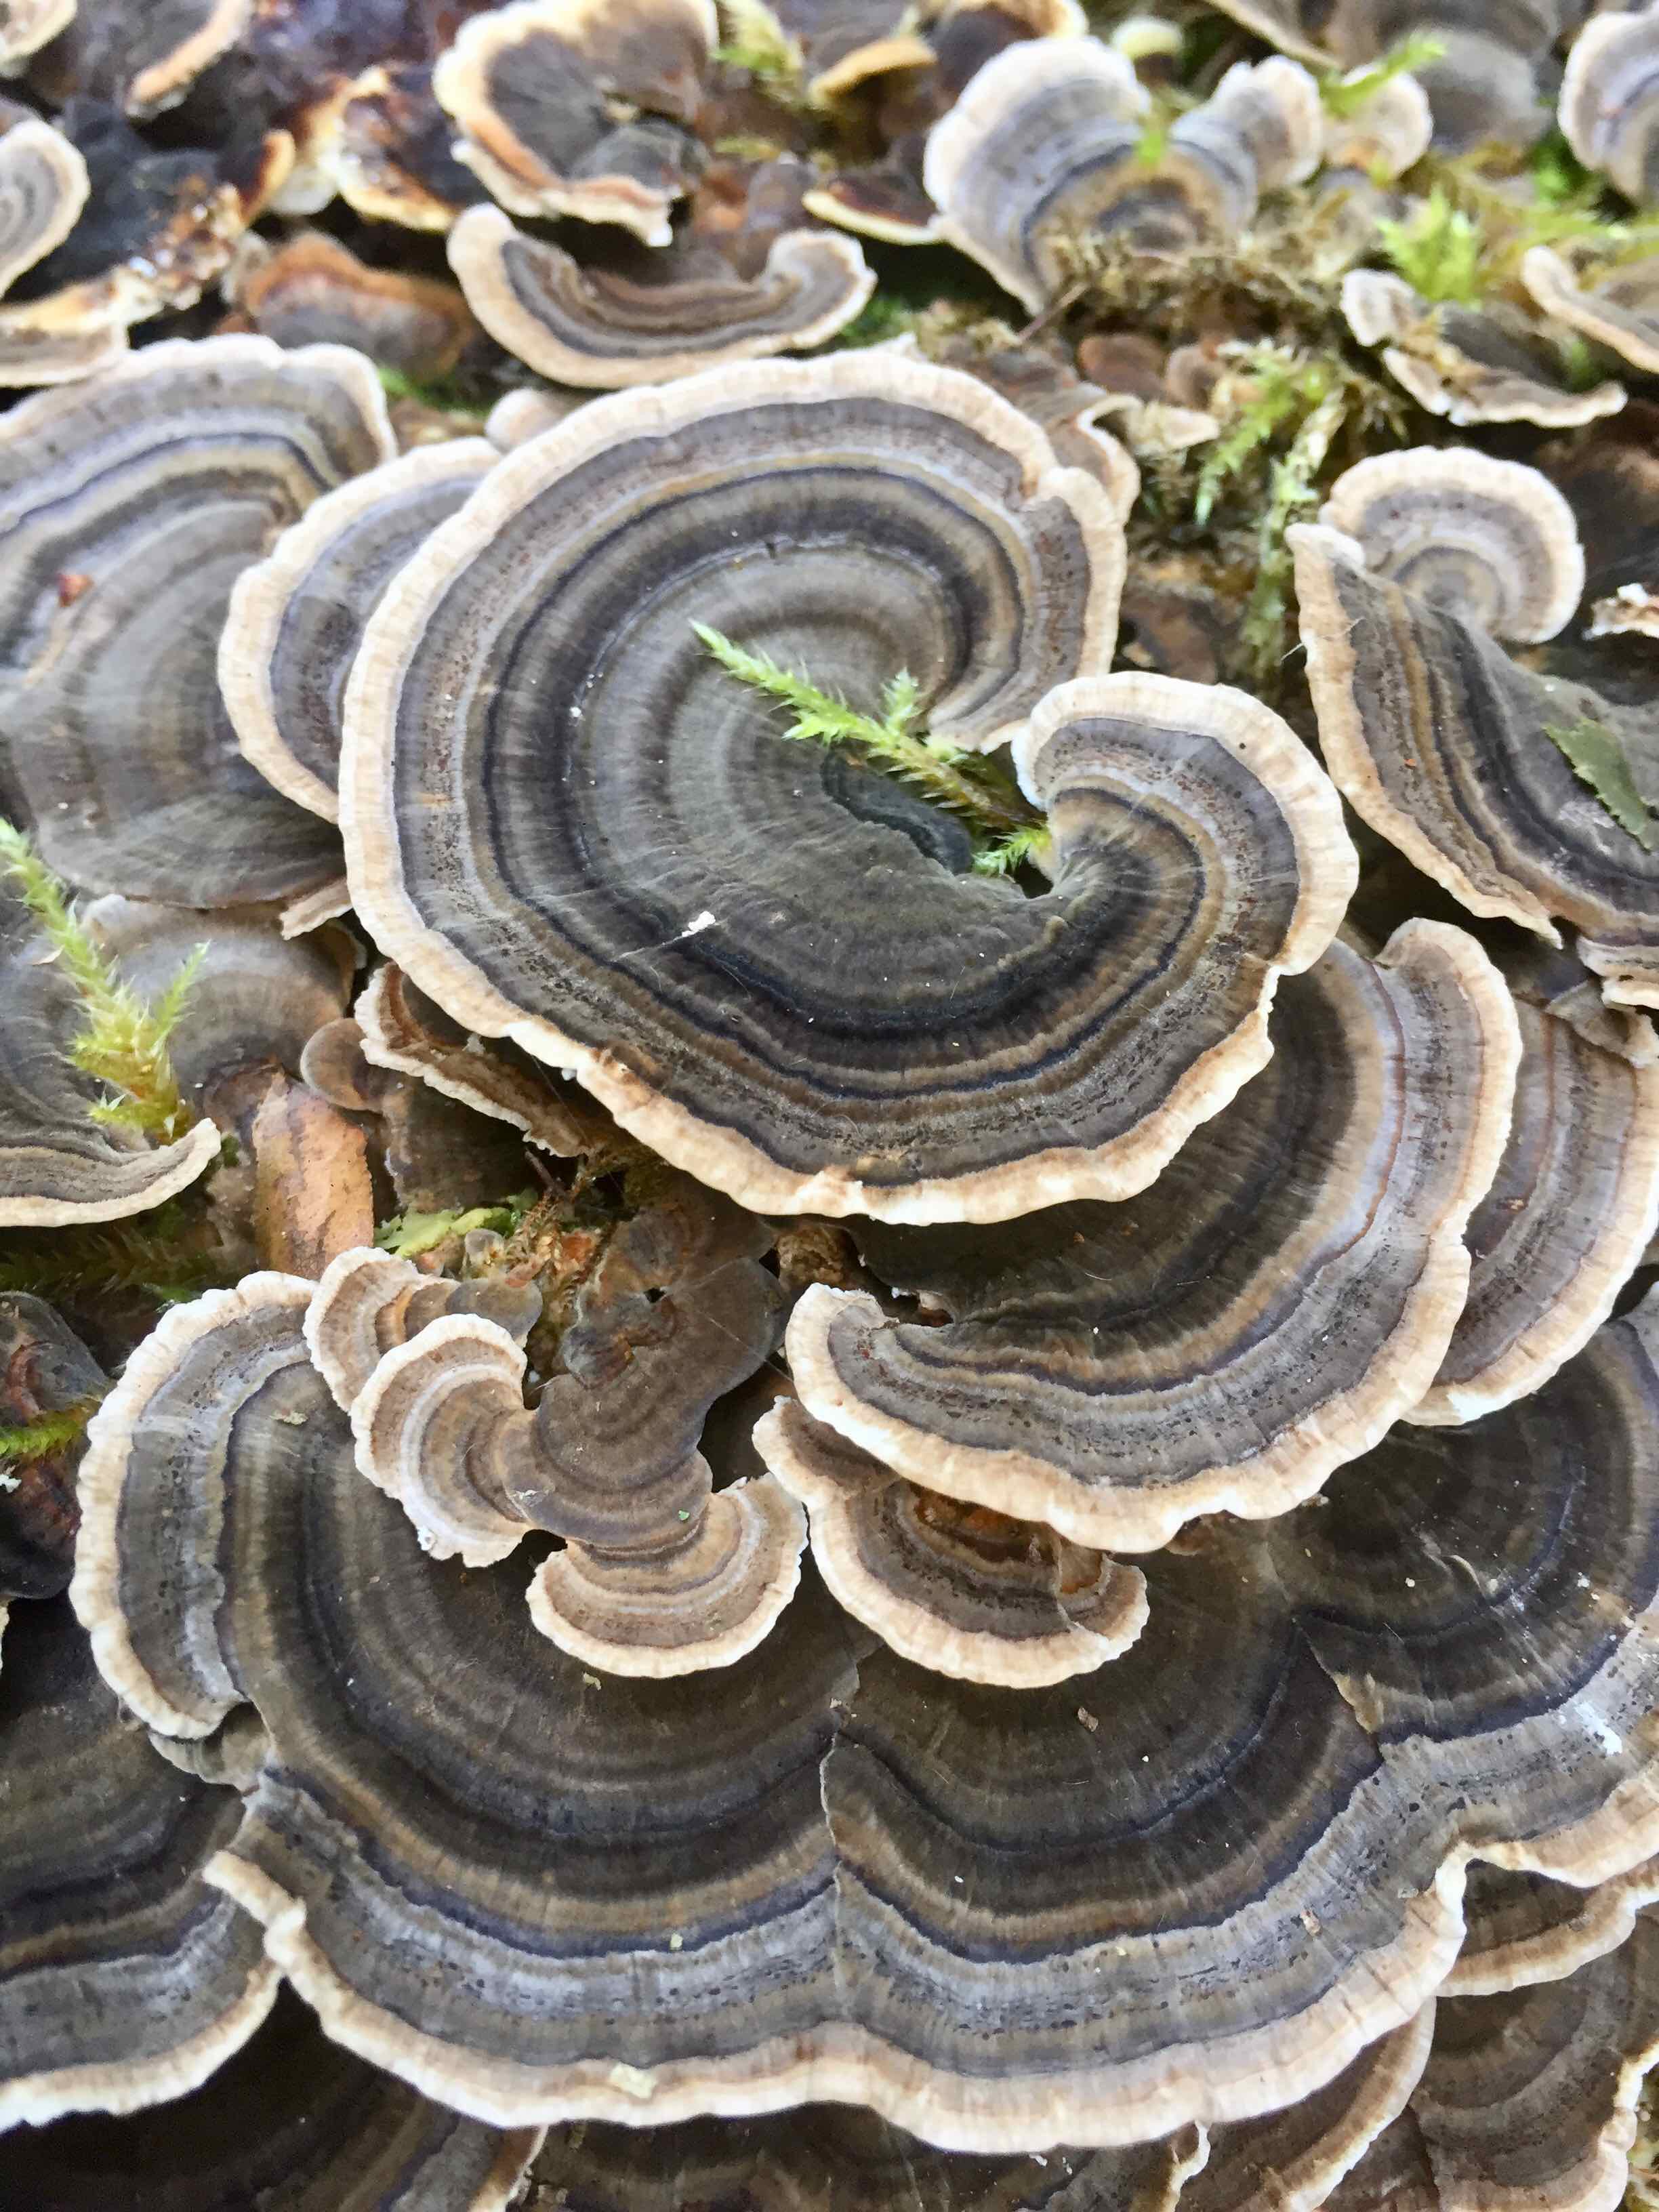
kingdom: Fungi
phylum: Basidiomycota
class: Agaricomycetes
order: Polyporales
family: Polyporaceae
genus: Trametes
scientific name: Trametes versicolor
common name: broget læderporesvamp
